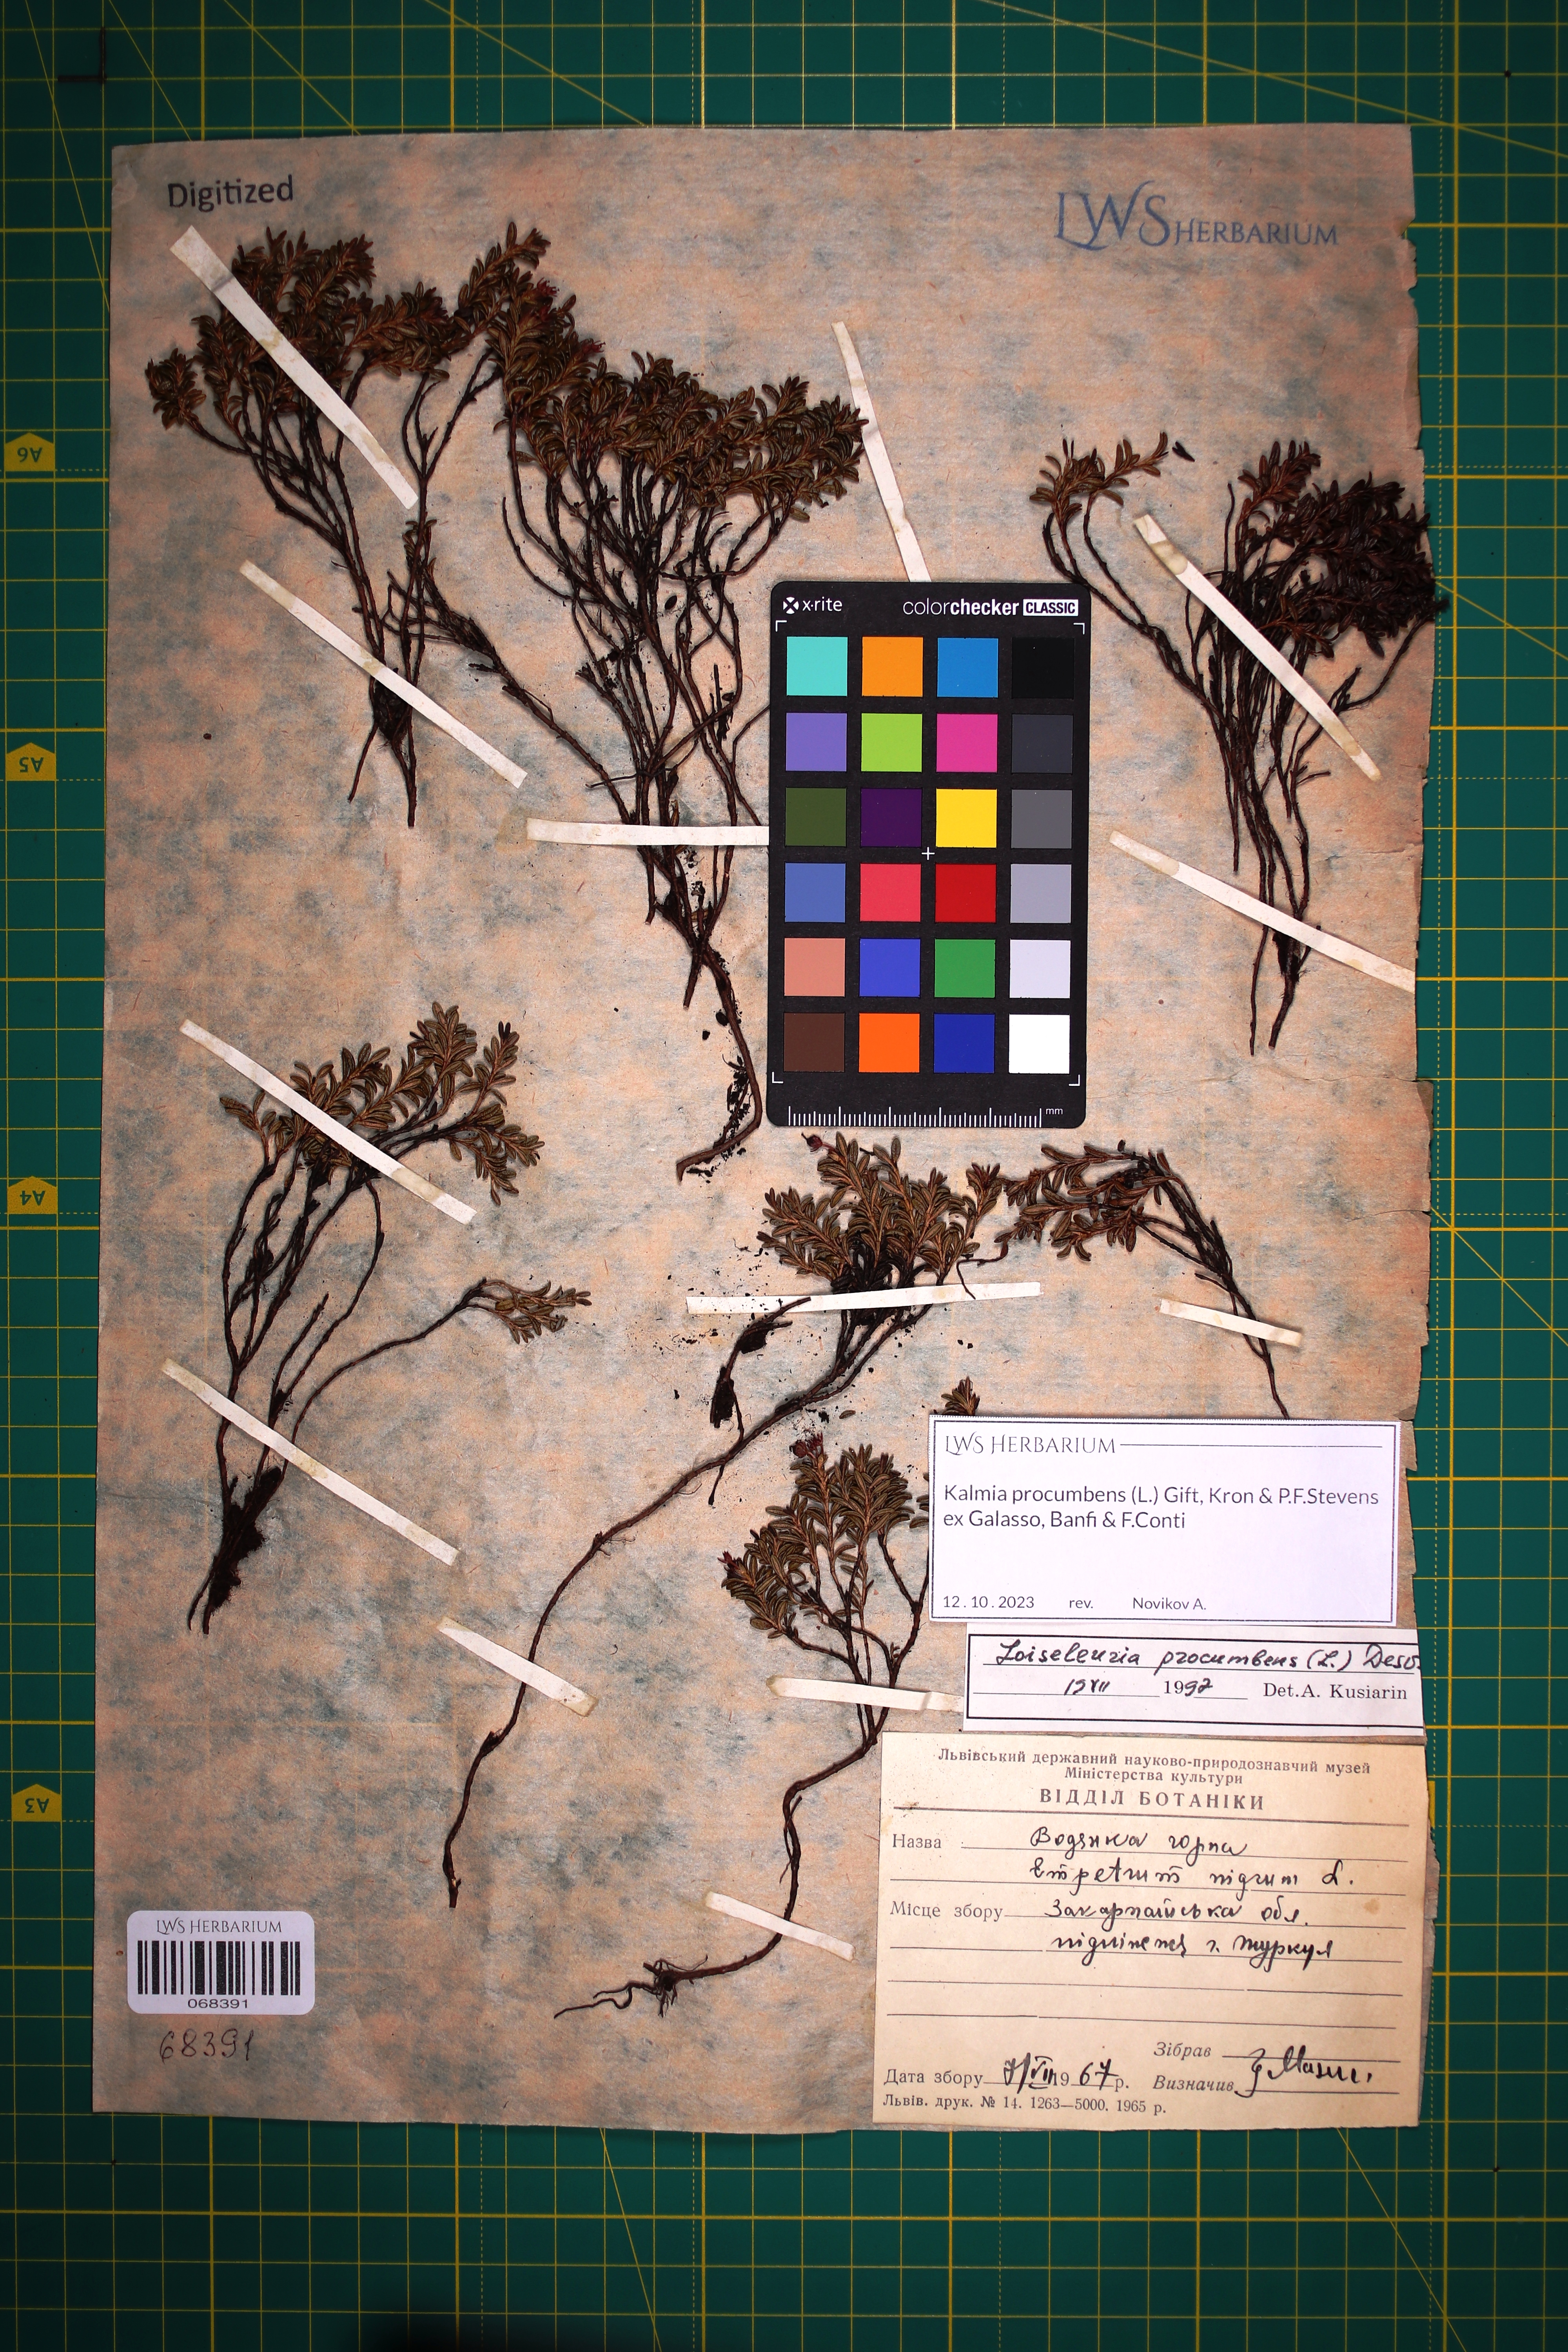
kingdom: Plantae
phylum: Tracheophyta
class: Magnoliopsida
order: Ericales
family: Ericaceae
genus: Kalmia
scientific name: Kalmia procumbens
